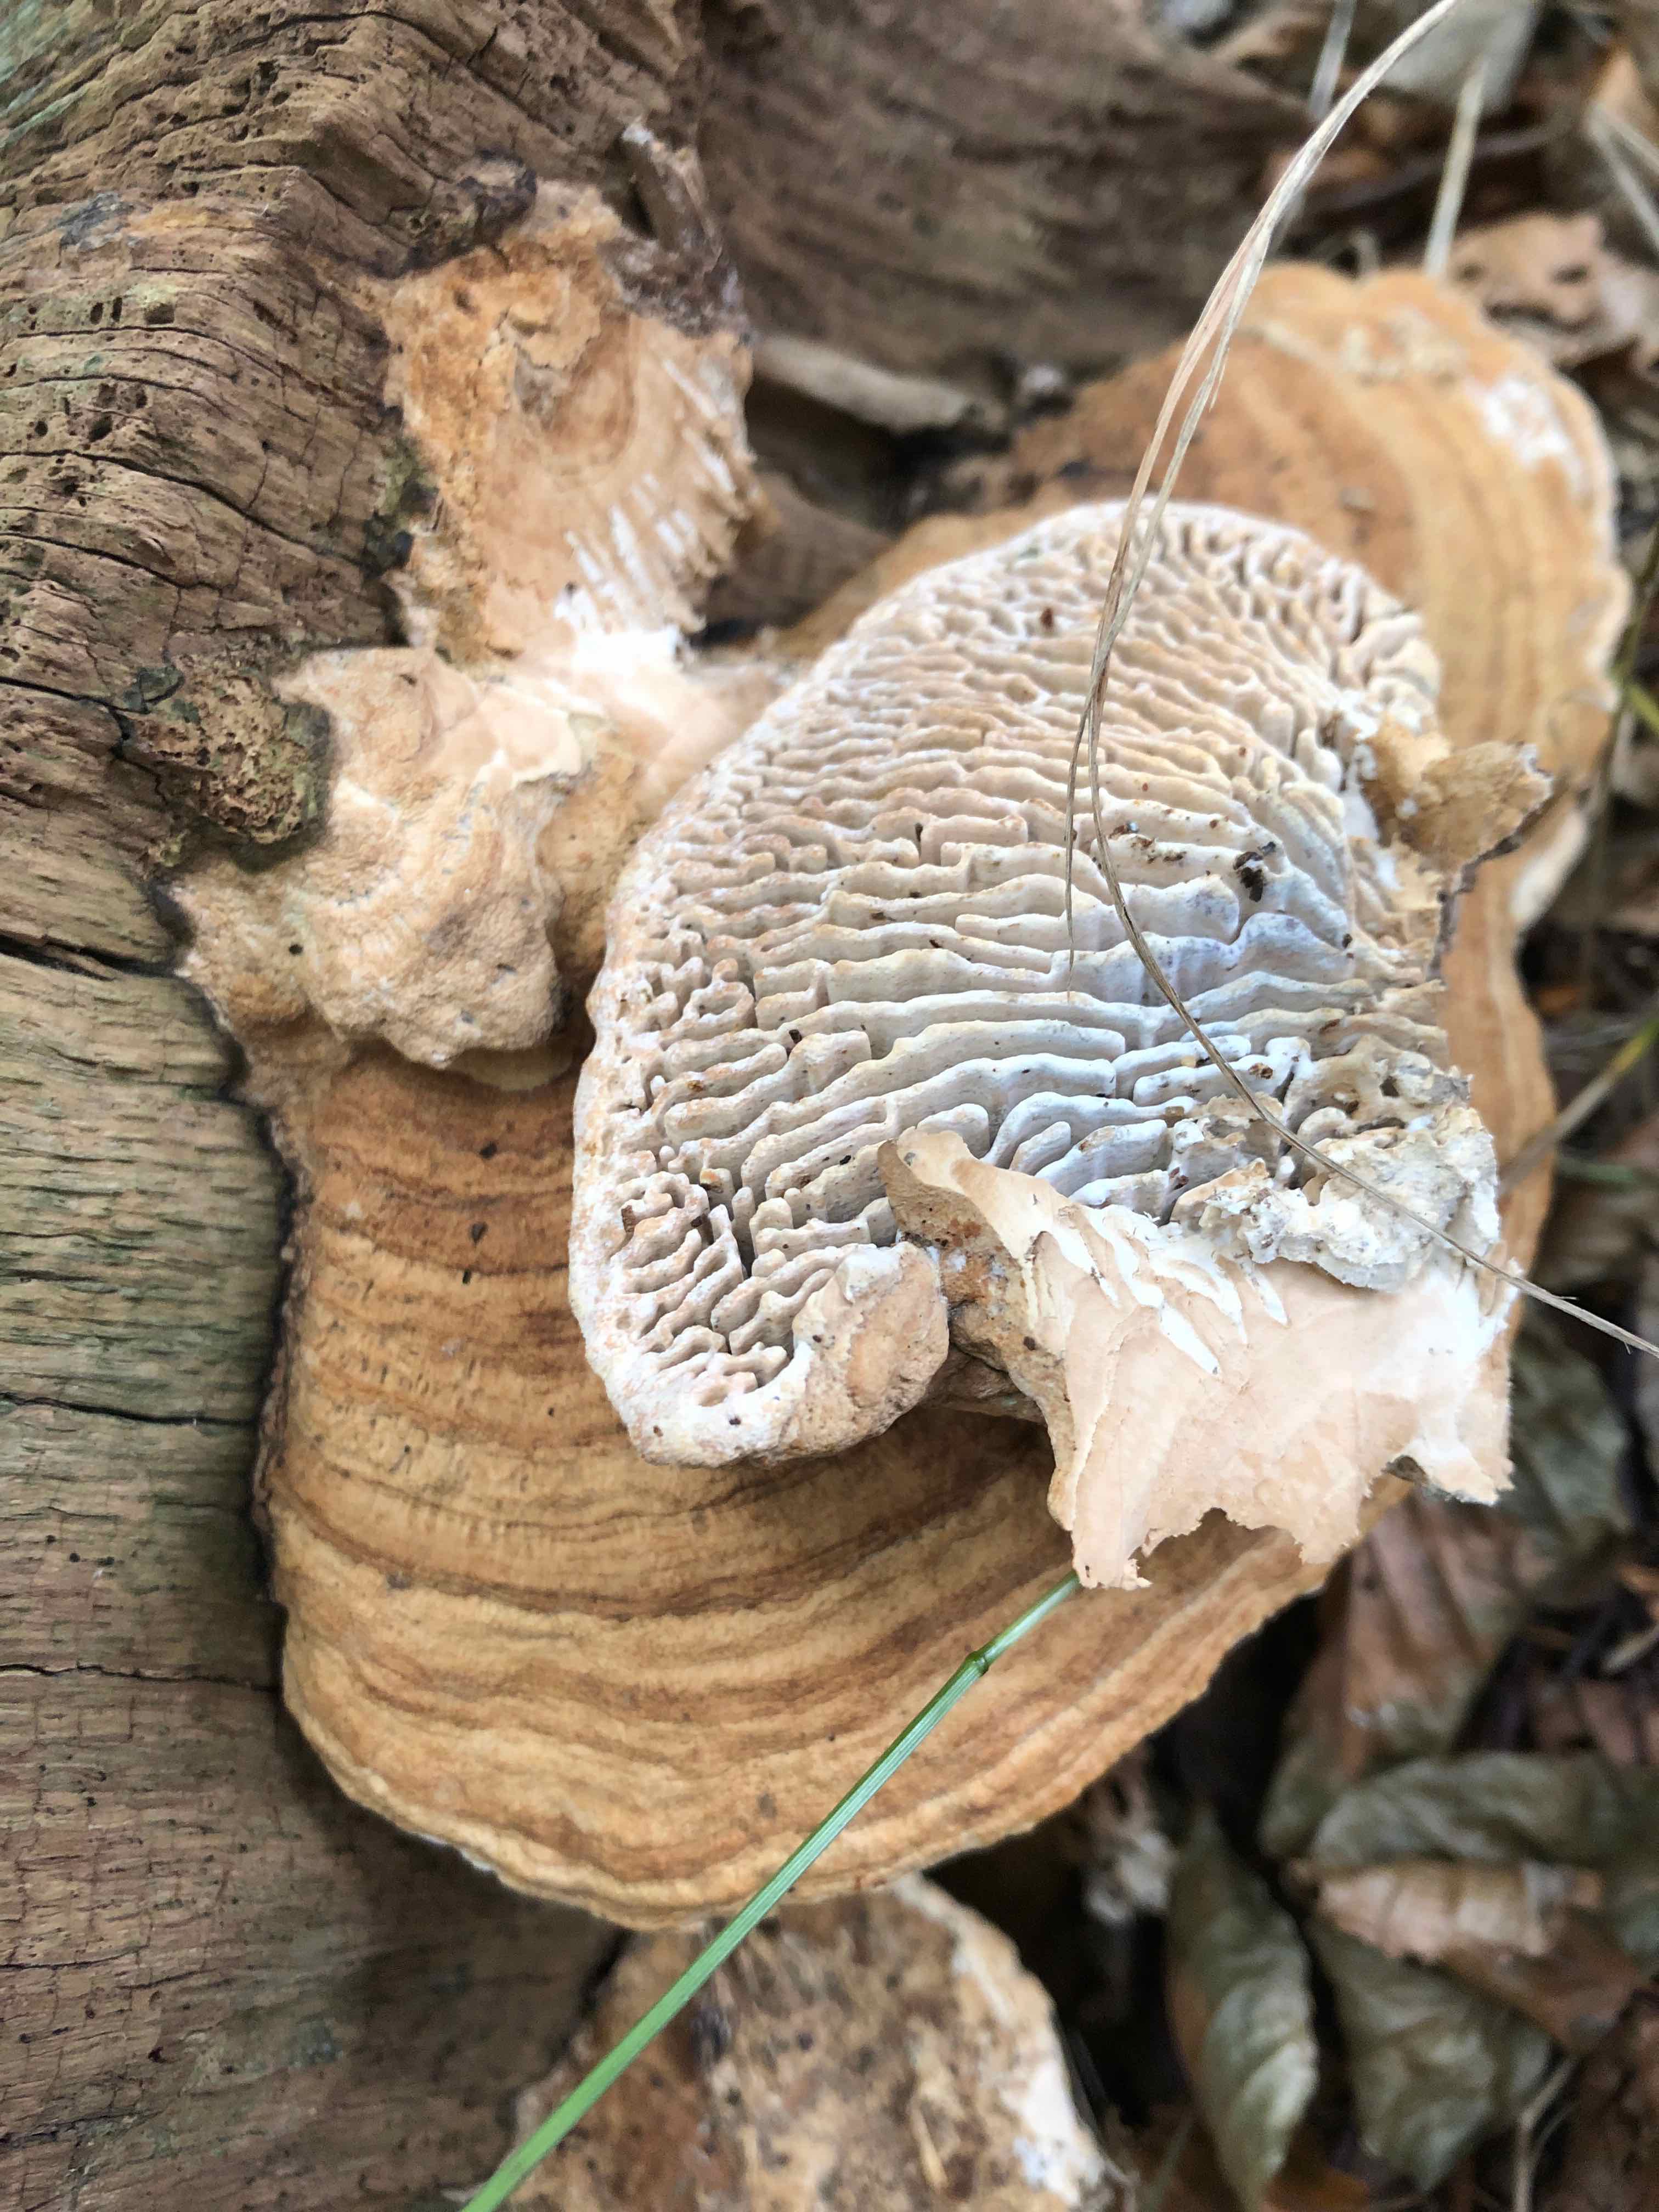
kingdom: Fungi
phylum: Basidiomycota
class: Agaricomycetes
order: Polyporales
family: Fomitopsidaceae
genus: Daedalea
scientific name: Daedalea quercina
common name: ege-labyrintsvamp
